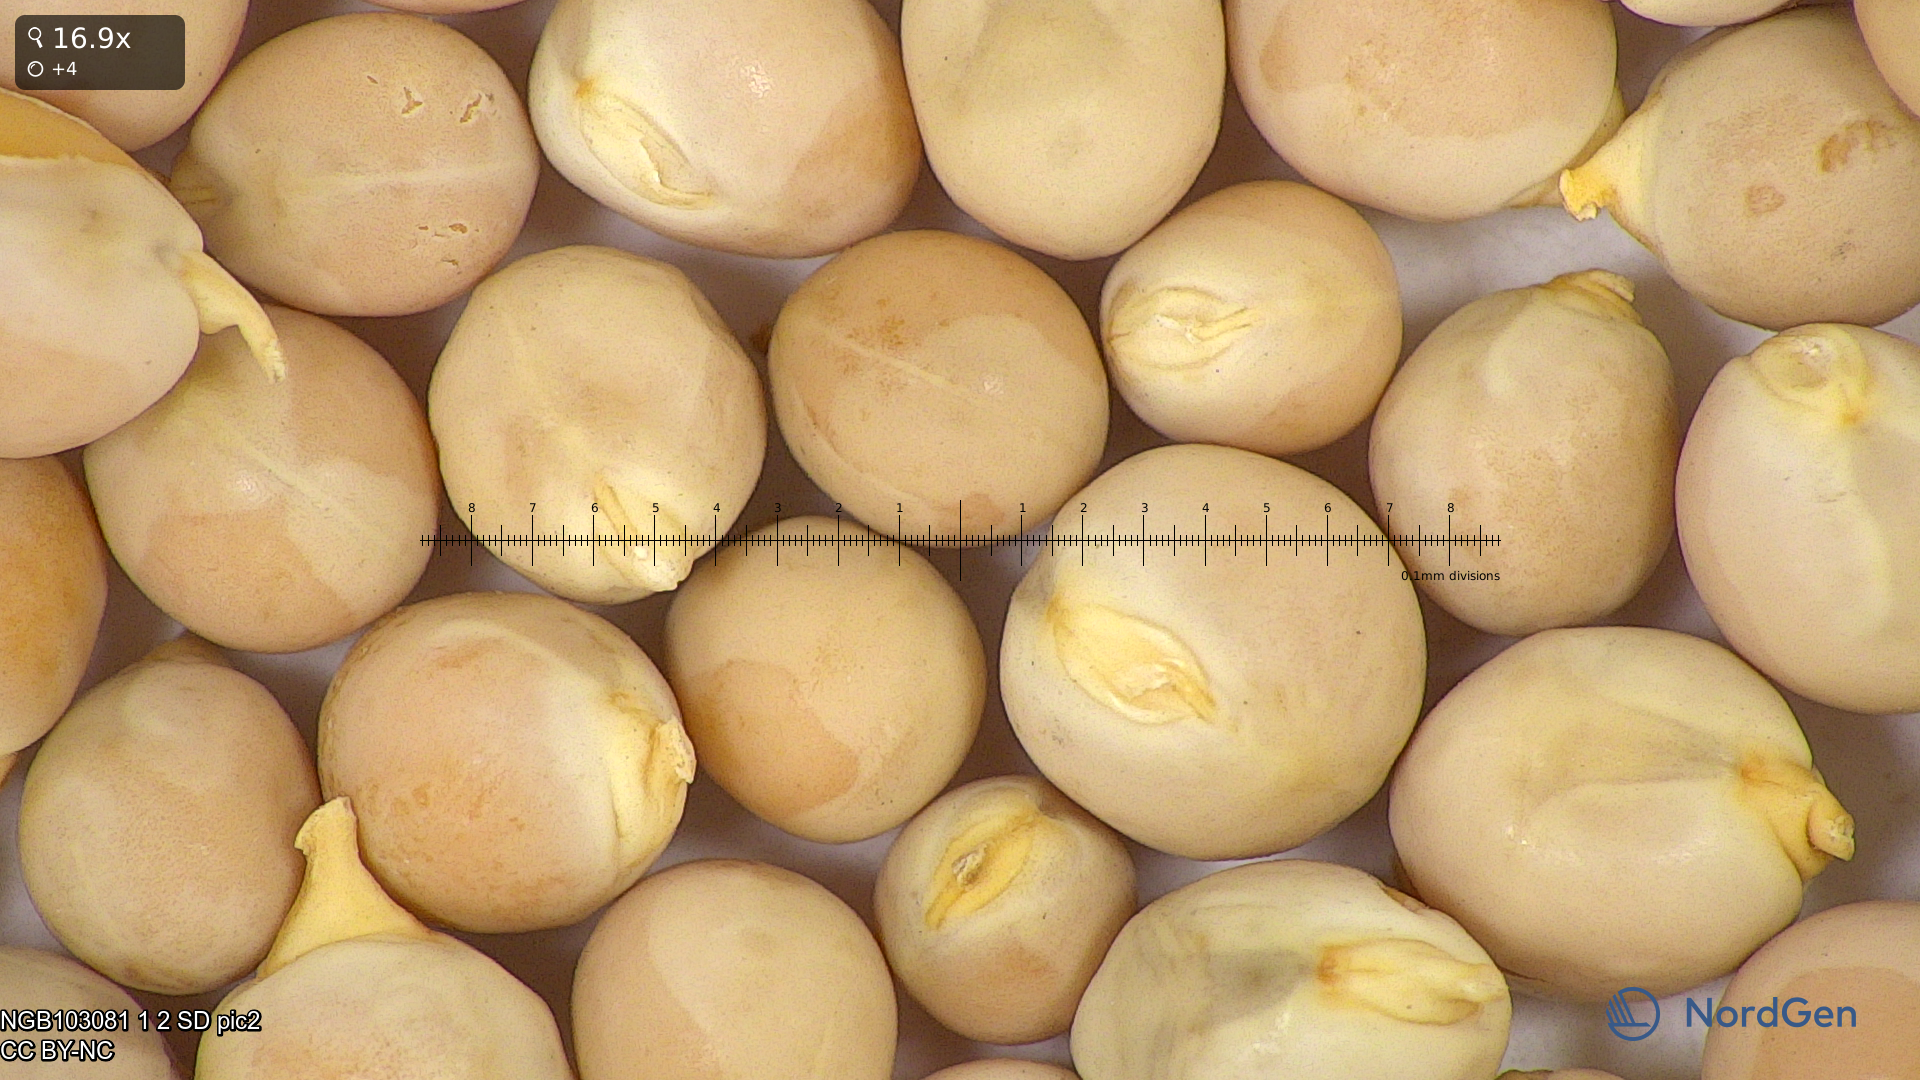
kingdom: Plantae
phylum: Tracheophyta
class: Magnoliopsida
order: Fabales
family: Fabaceae
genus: Lathyrus
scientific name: Lathyrus oleraceus
